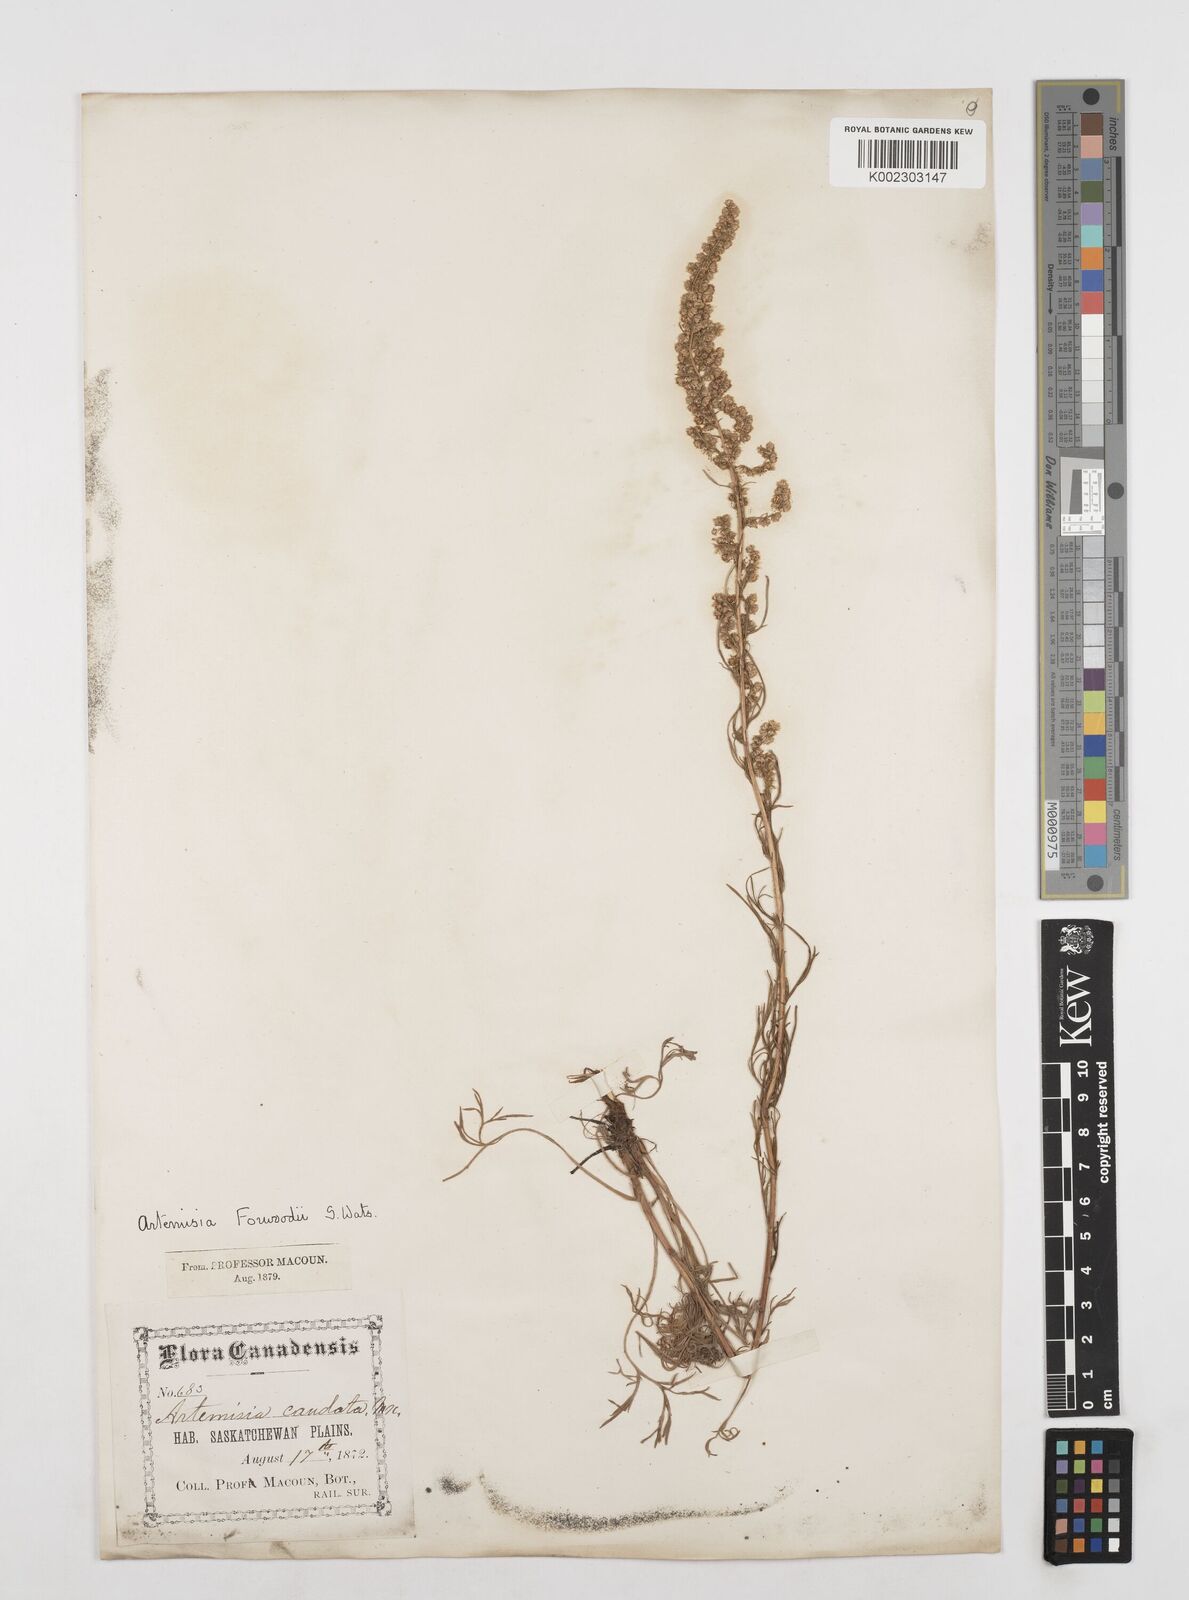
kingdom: Plantae
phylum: Tracheophyta
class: Magnoliopsida
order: Asterales
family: Asteraceae
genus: Artemisia
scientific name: Artemisia campestris
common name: Field wormwood
